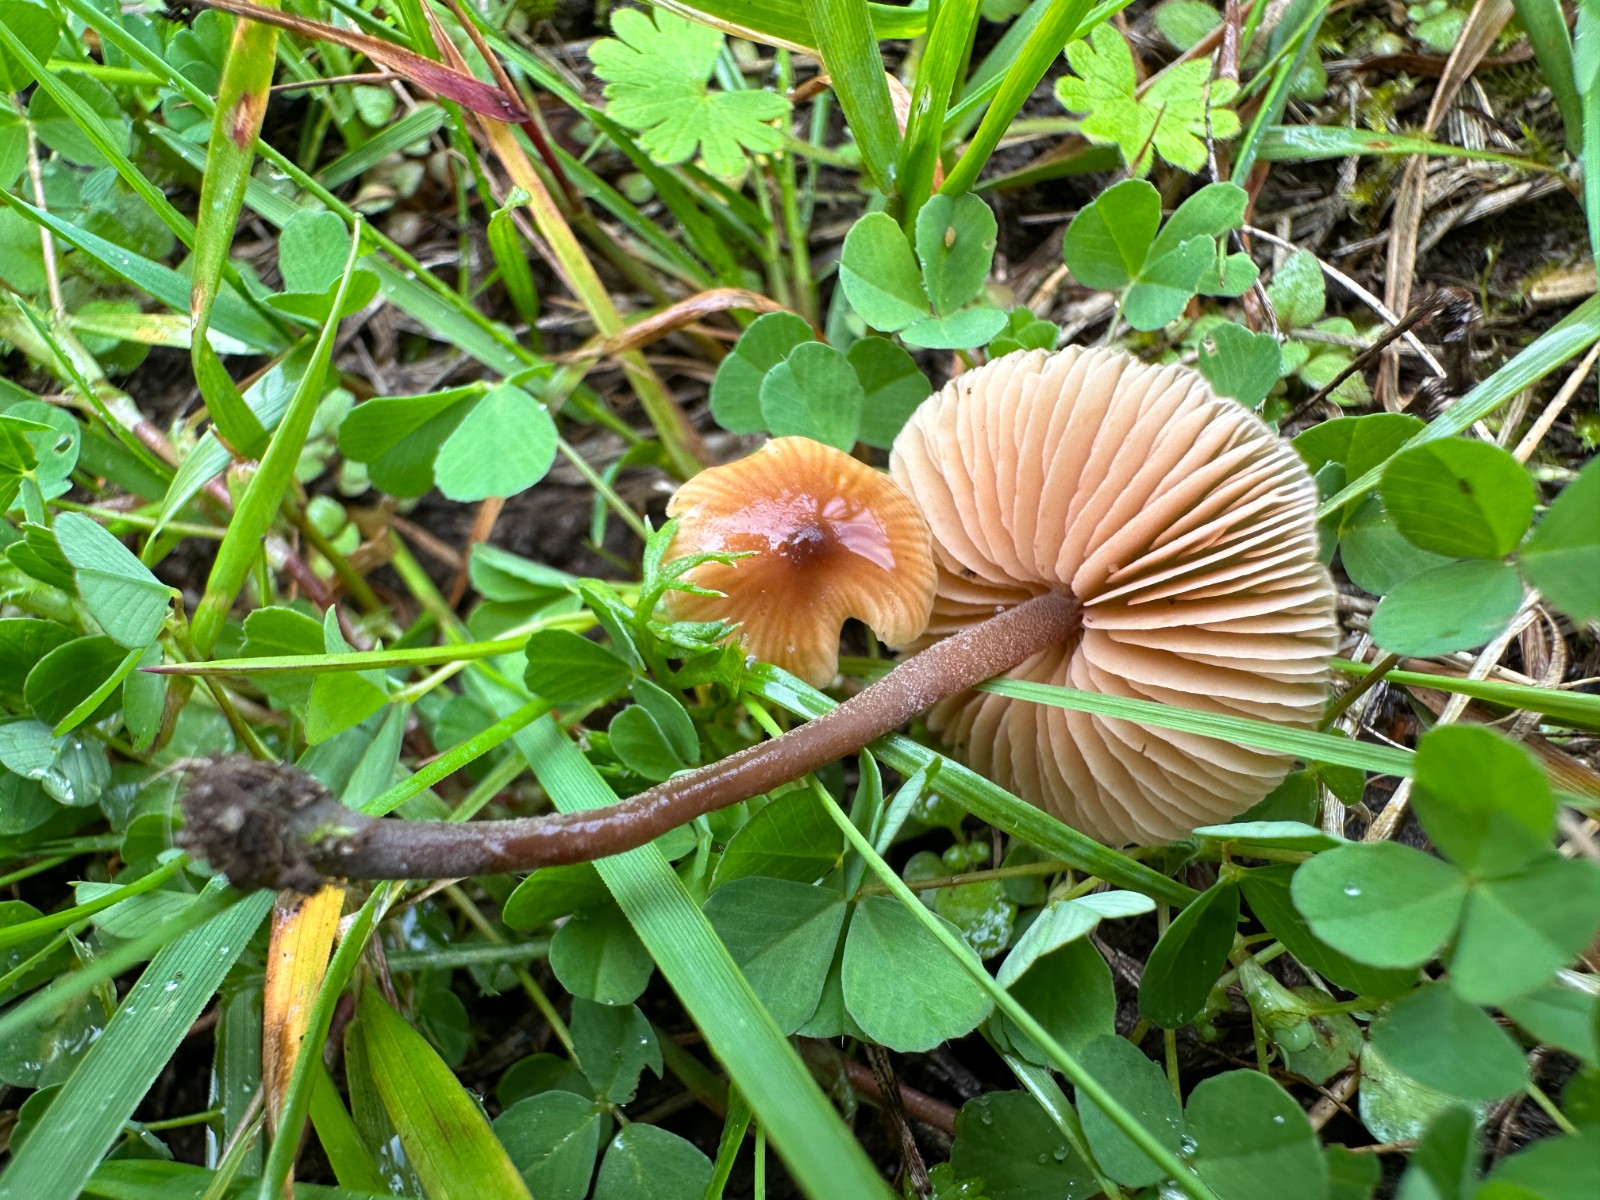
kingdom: Fungi
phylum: Basidiomycota
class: Agaricomycetes
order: Agaricales
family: Macrocystidiaceae
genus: Macrocystidia
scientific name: Macrocystidia cucumis
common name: agurkehat
